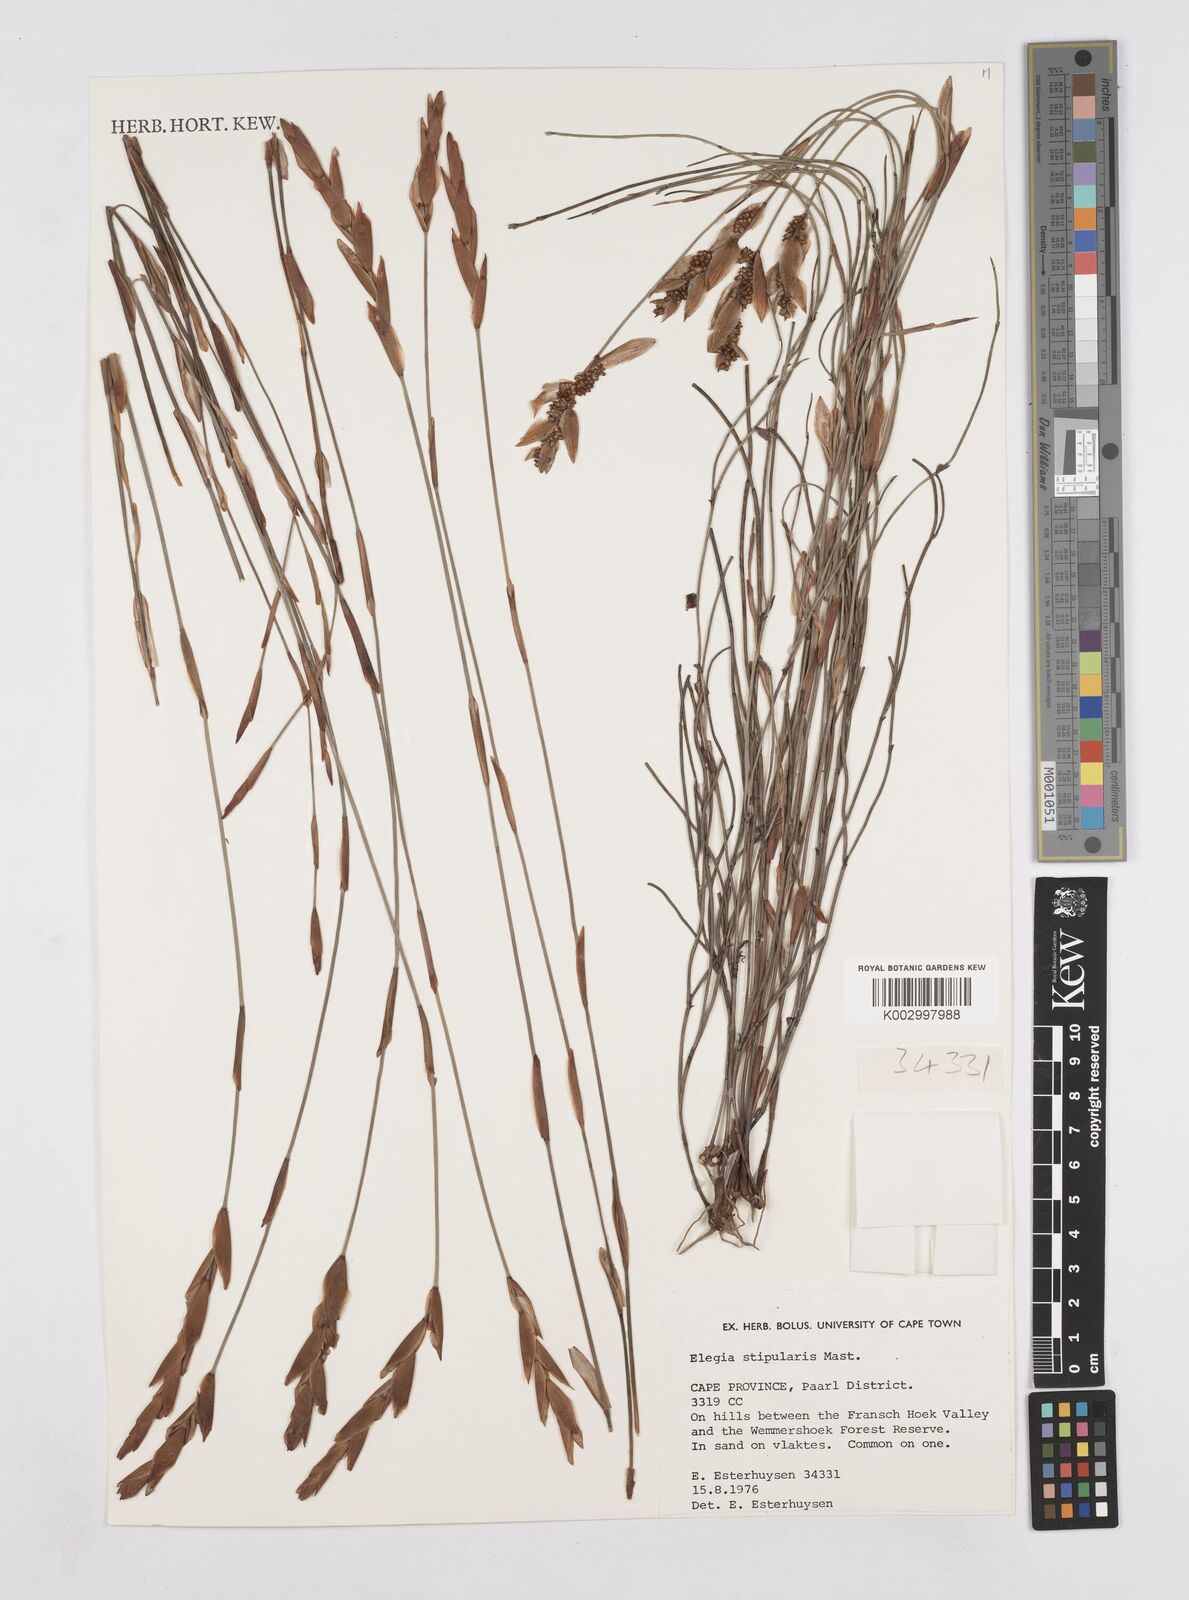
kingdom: Plantae
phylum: Tracheophyta
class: Liliopsida
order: Poales
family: Restionaceae
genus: Elegia
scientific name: Elegia stipularis
